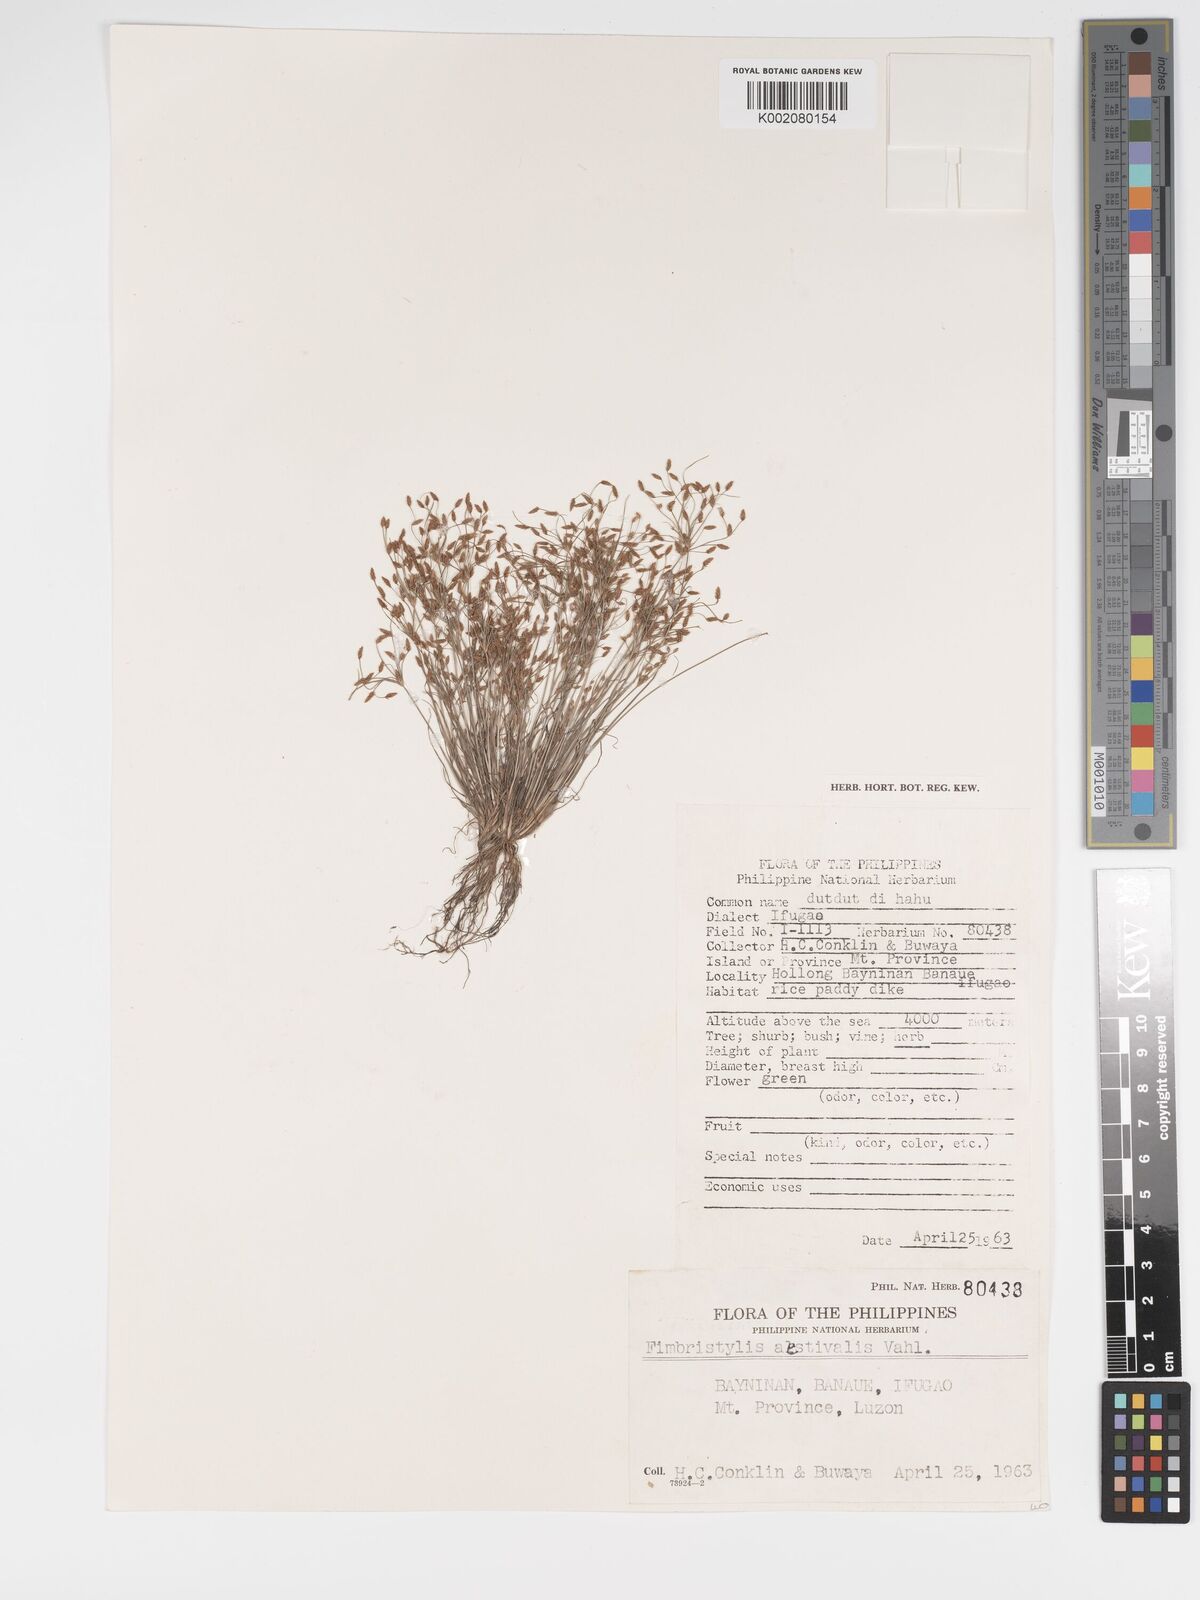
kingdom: Plantae
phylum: Tracheophyta
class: Liliopsida
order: Poales
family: Cyperaceae
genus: Fimbristylis
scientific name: Fimbristylis aestivalis
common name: Summer fimbry
